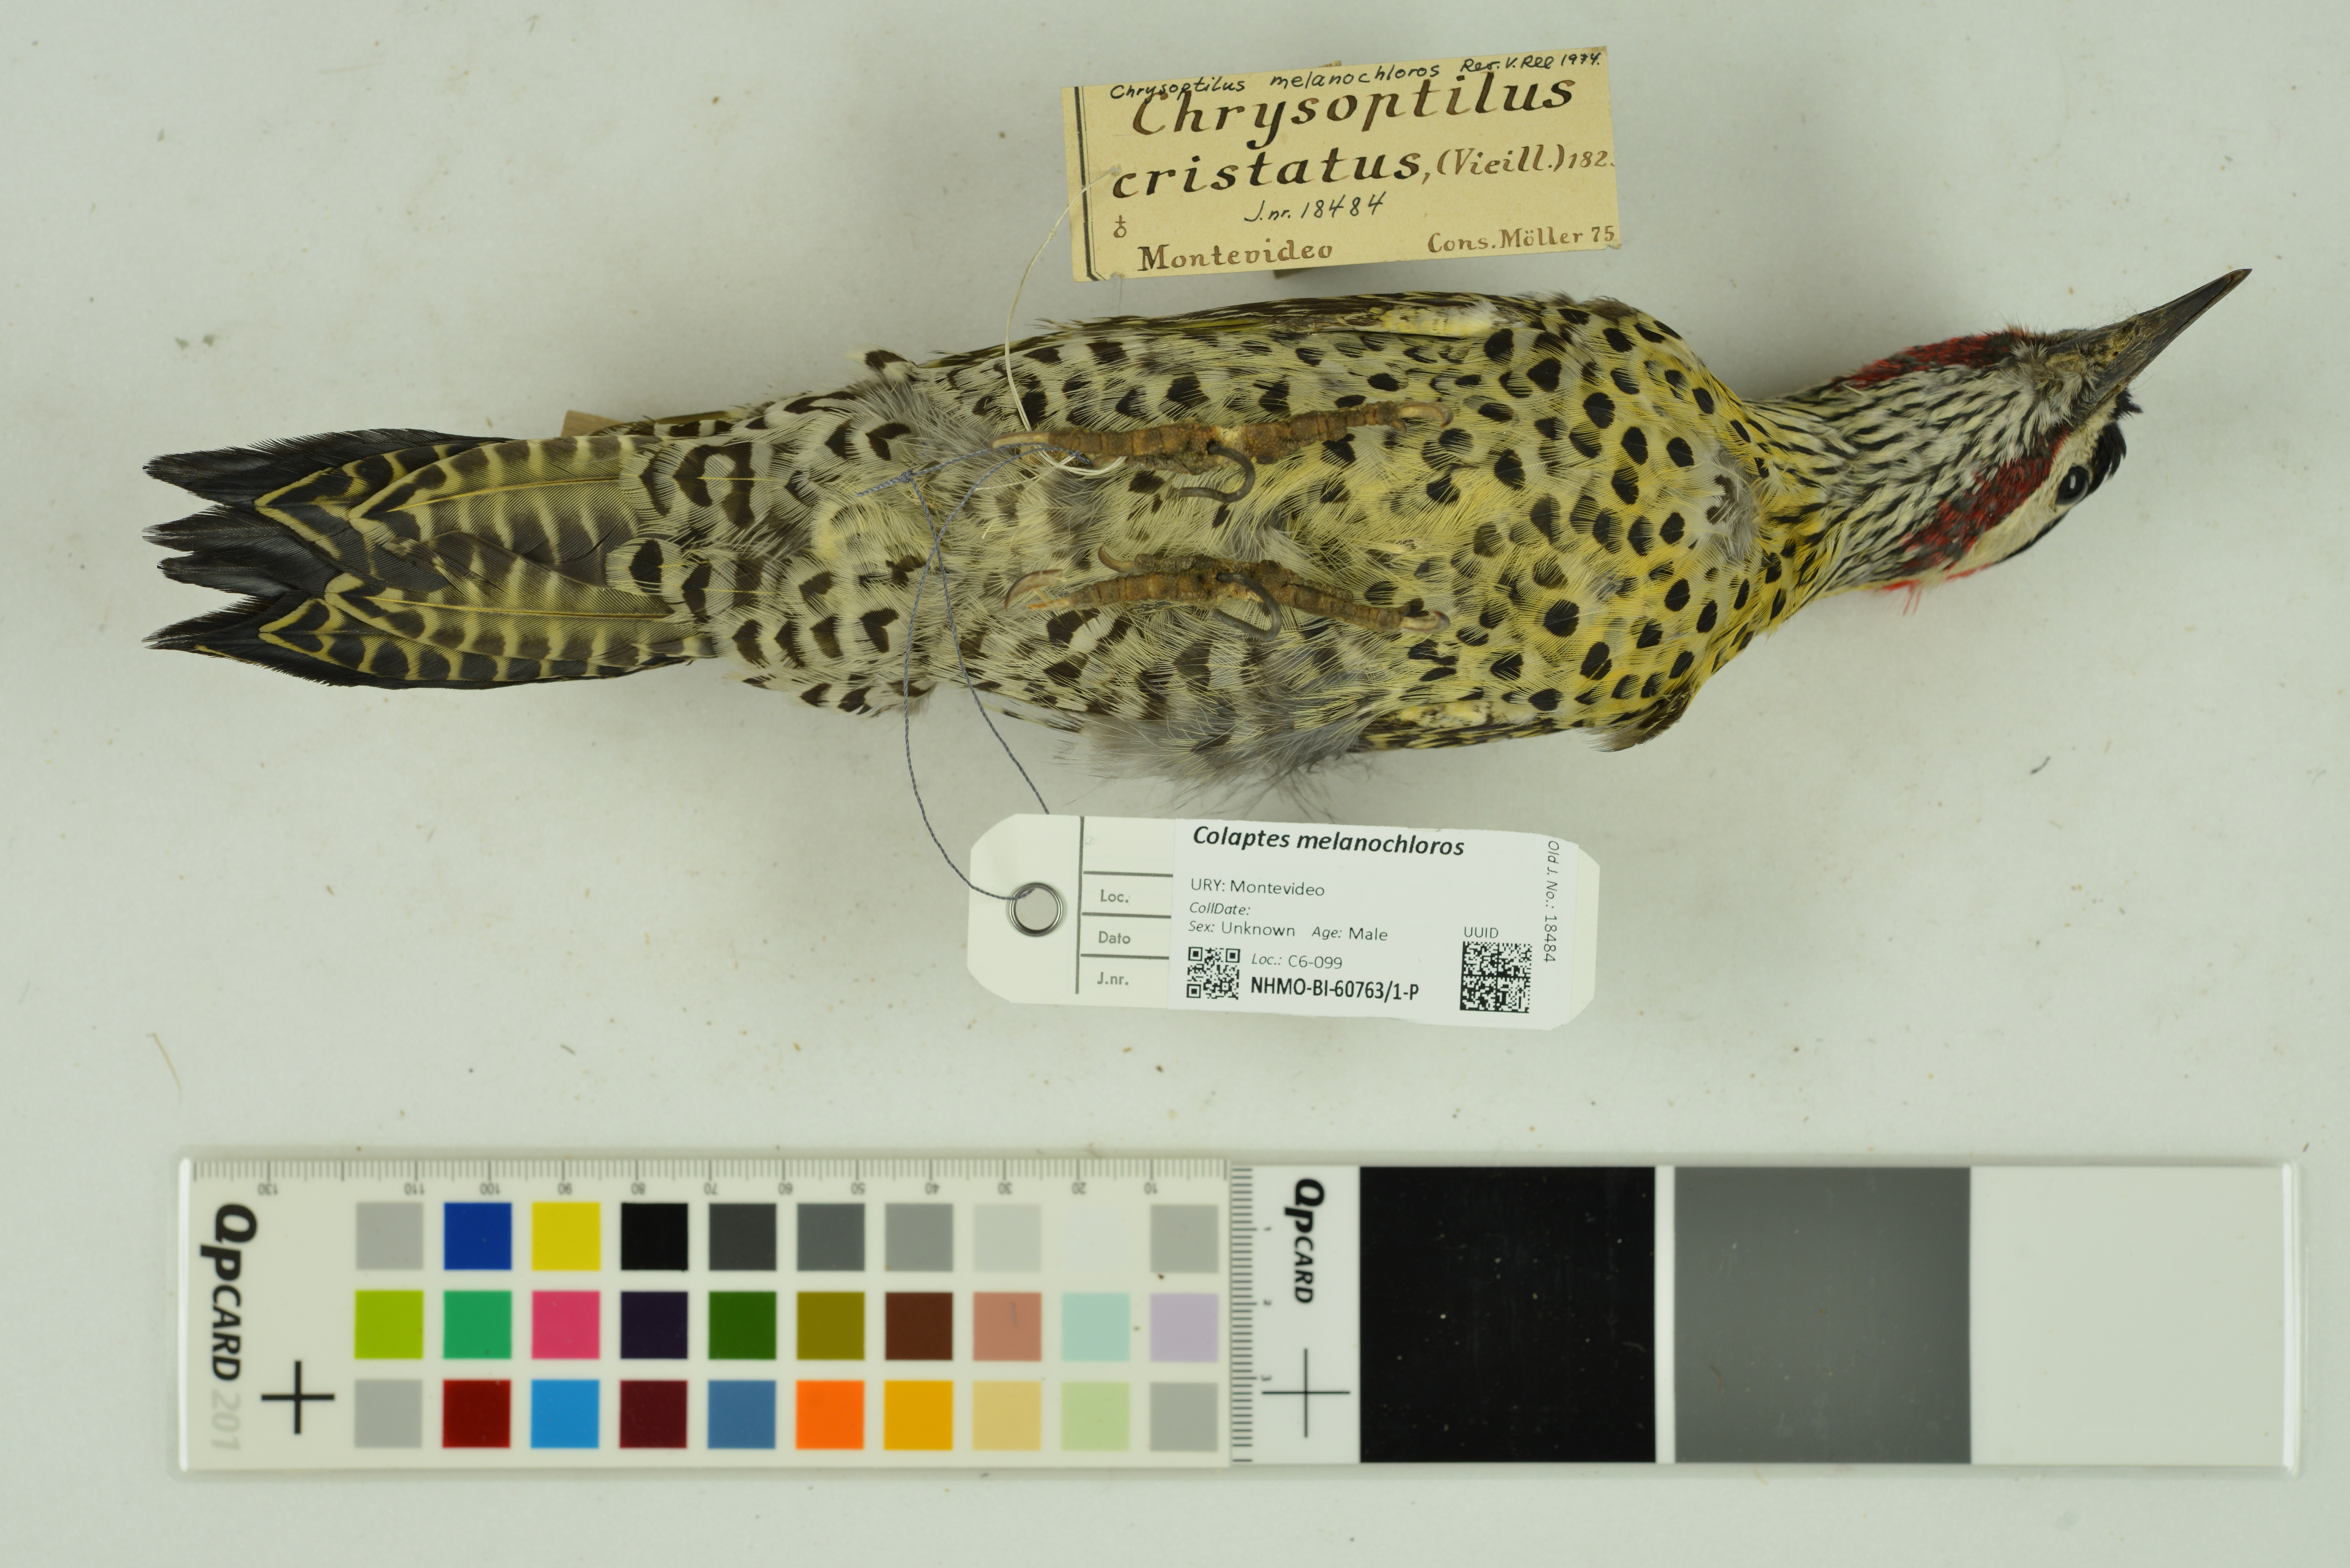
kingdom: Animalia
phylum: Chordata
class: Aves
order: Piciformes
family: Picidae
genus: Colaptes
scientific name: Colaptes melanochloros
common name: Green-barred woodpecker
